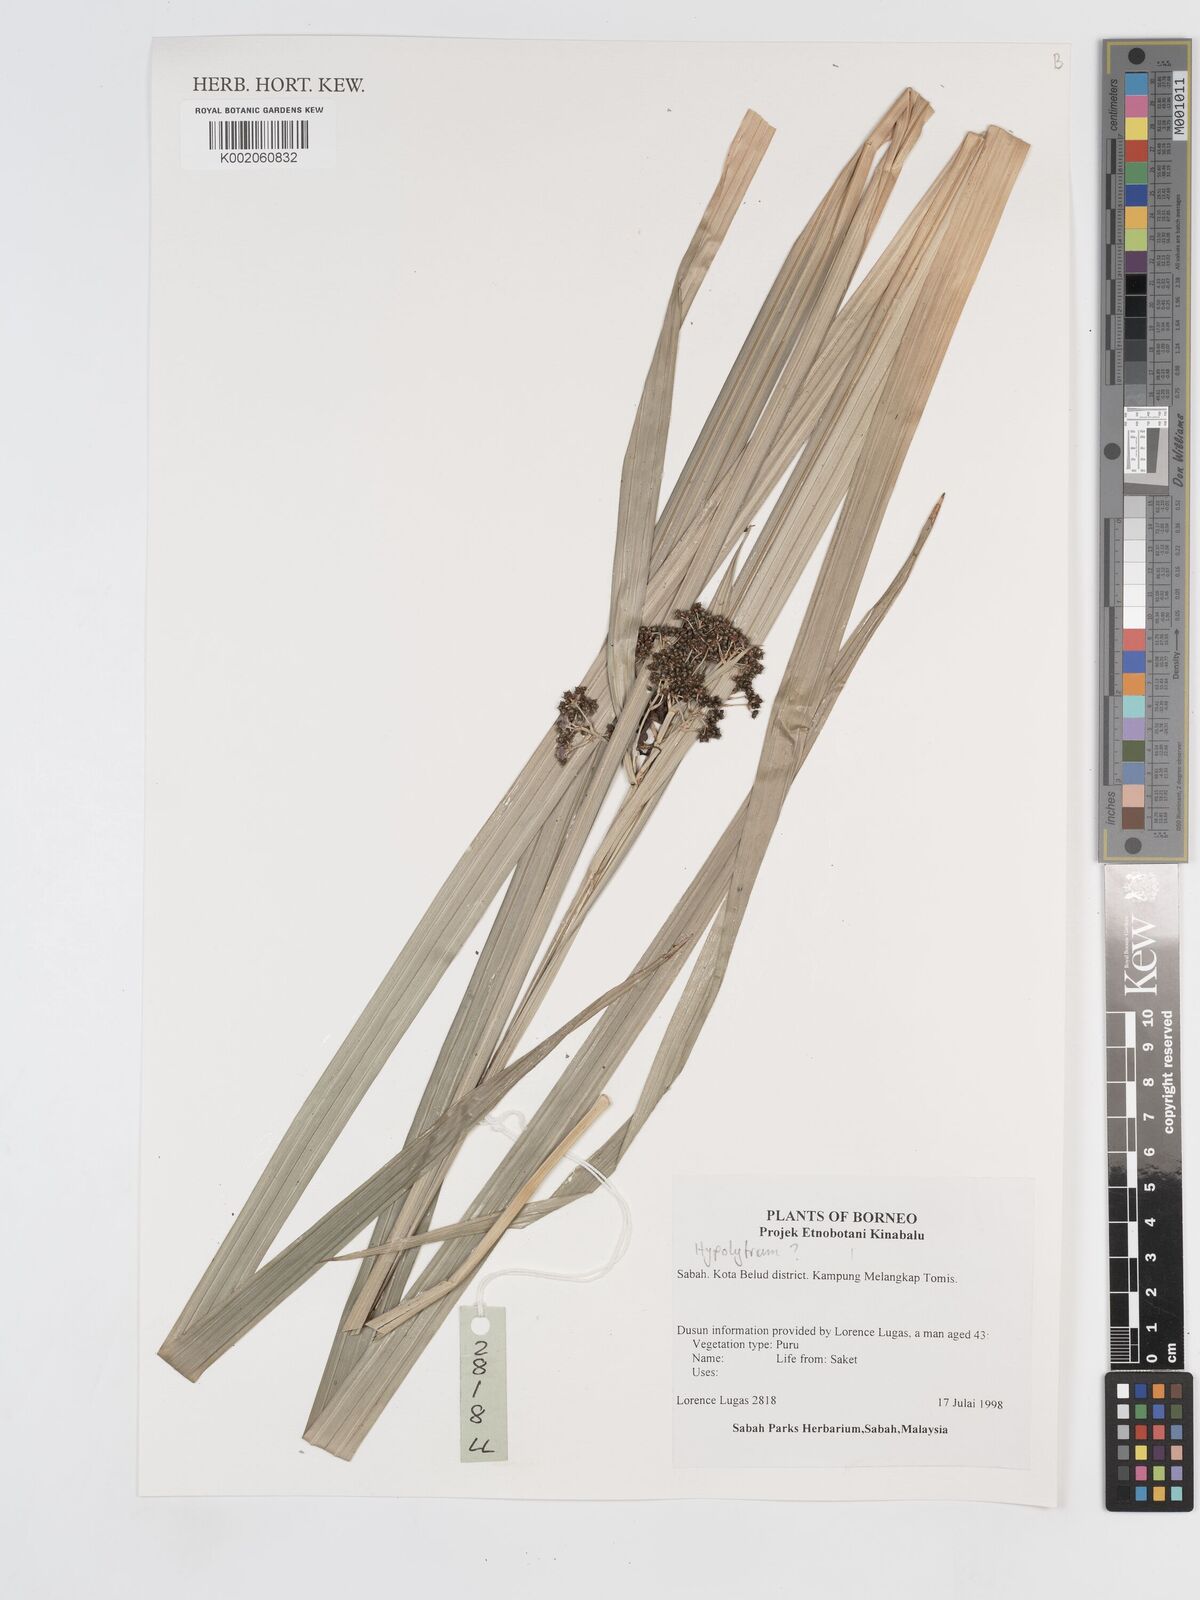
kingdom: Plantae
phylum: Tracheophyta
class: Liliopsida
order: Poales
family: Cyperaceae
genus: Hypolytrum
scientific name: Hypolytrum
